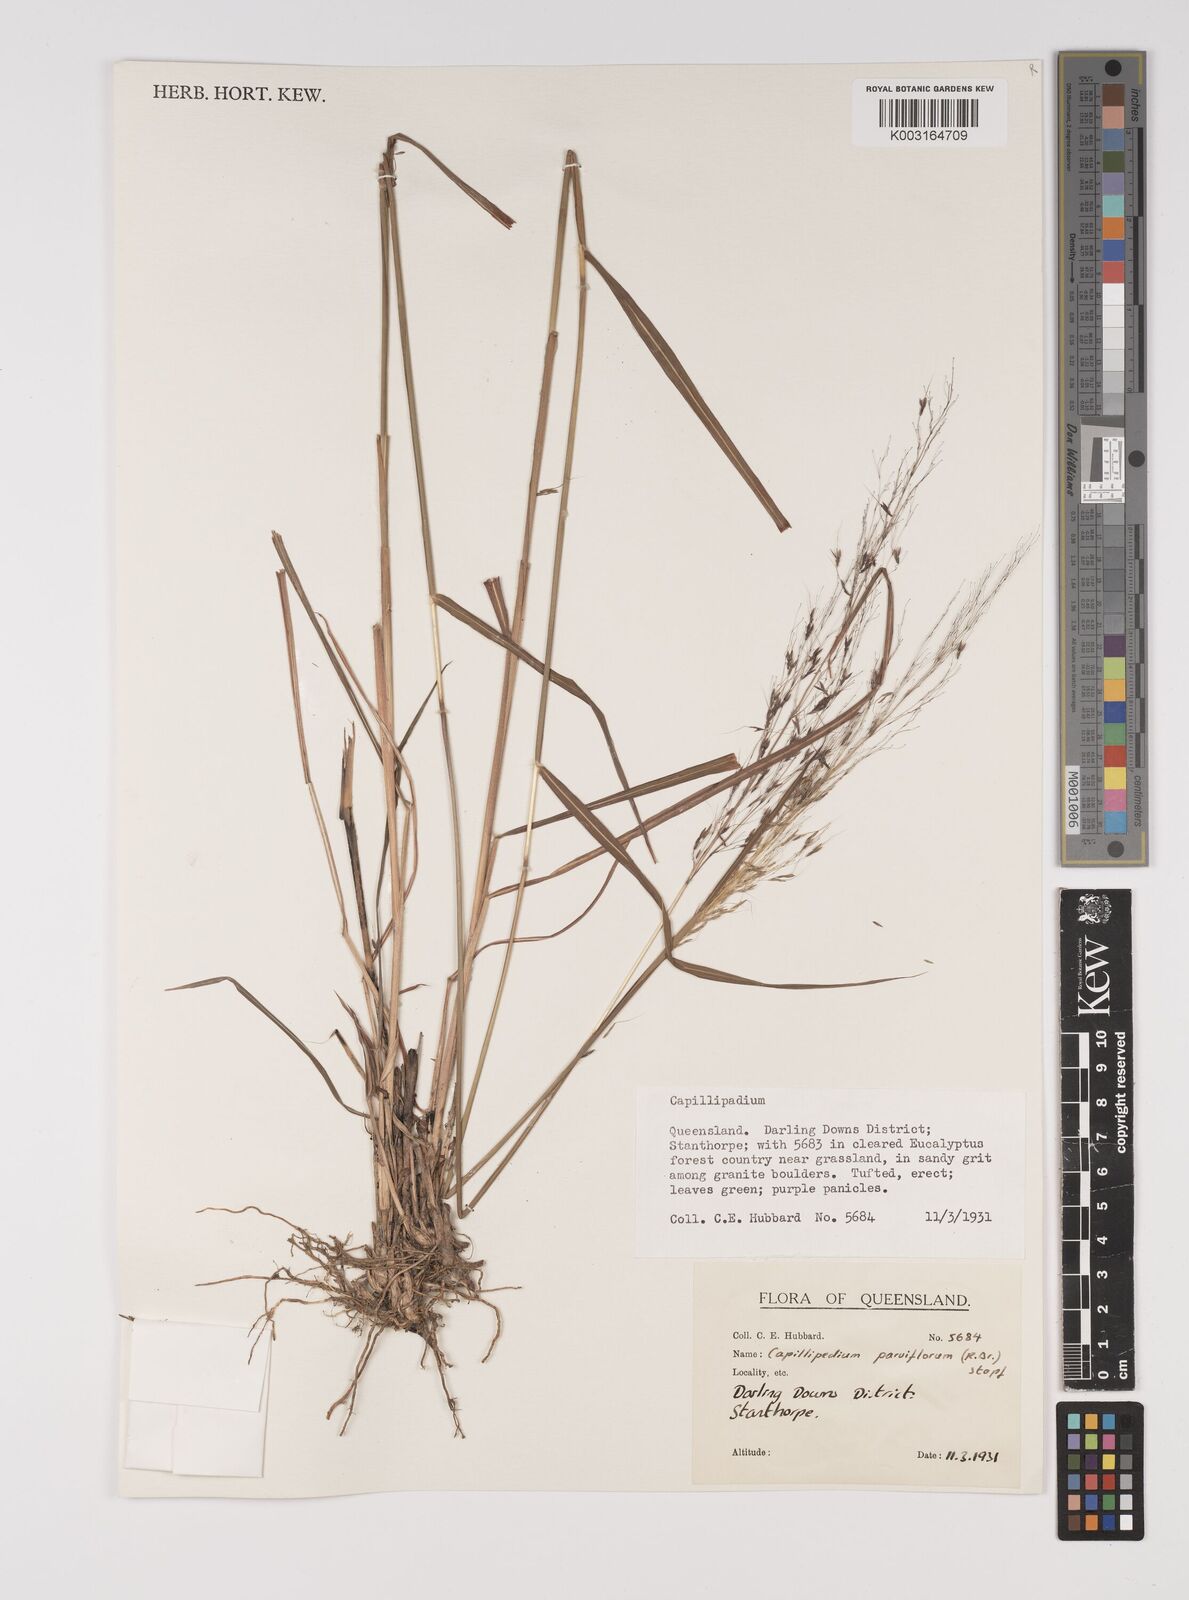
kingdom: Plantae
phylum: Tracheophyta
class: Liliopsida
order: Poales
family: Poaceae
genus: Capillipedium
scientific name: Capillipedium parviflorum
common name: Golden-beard
